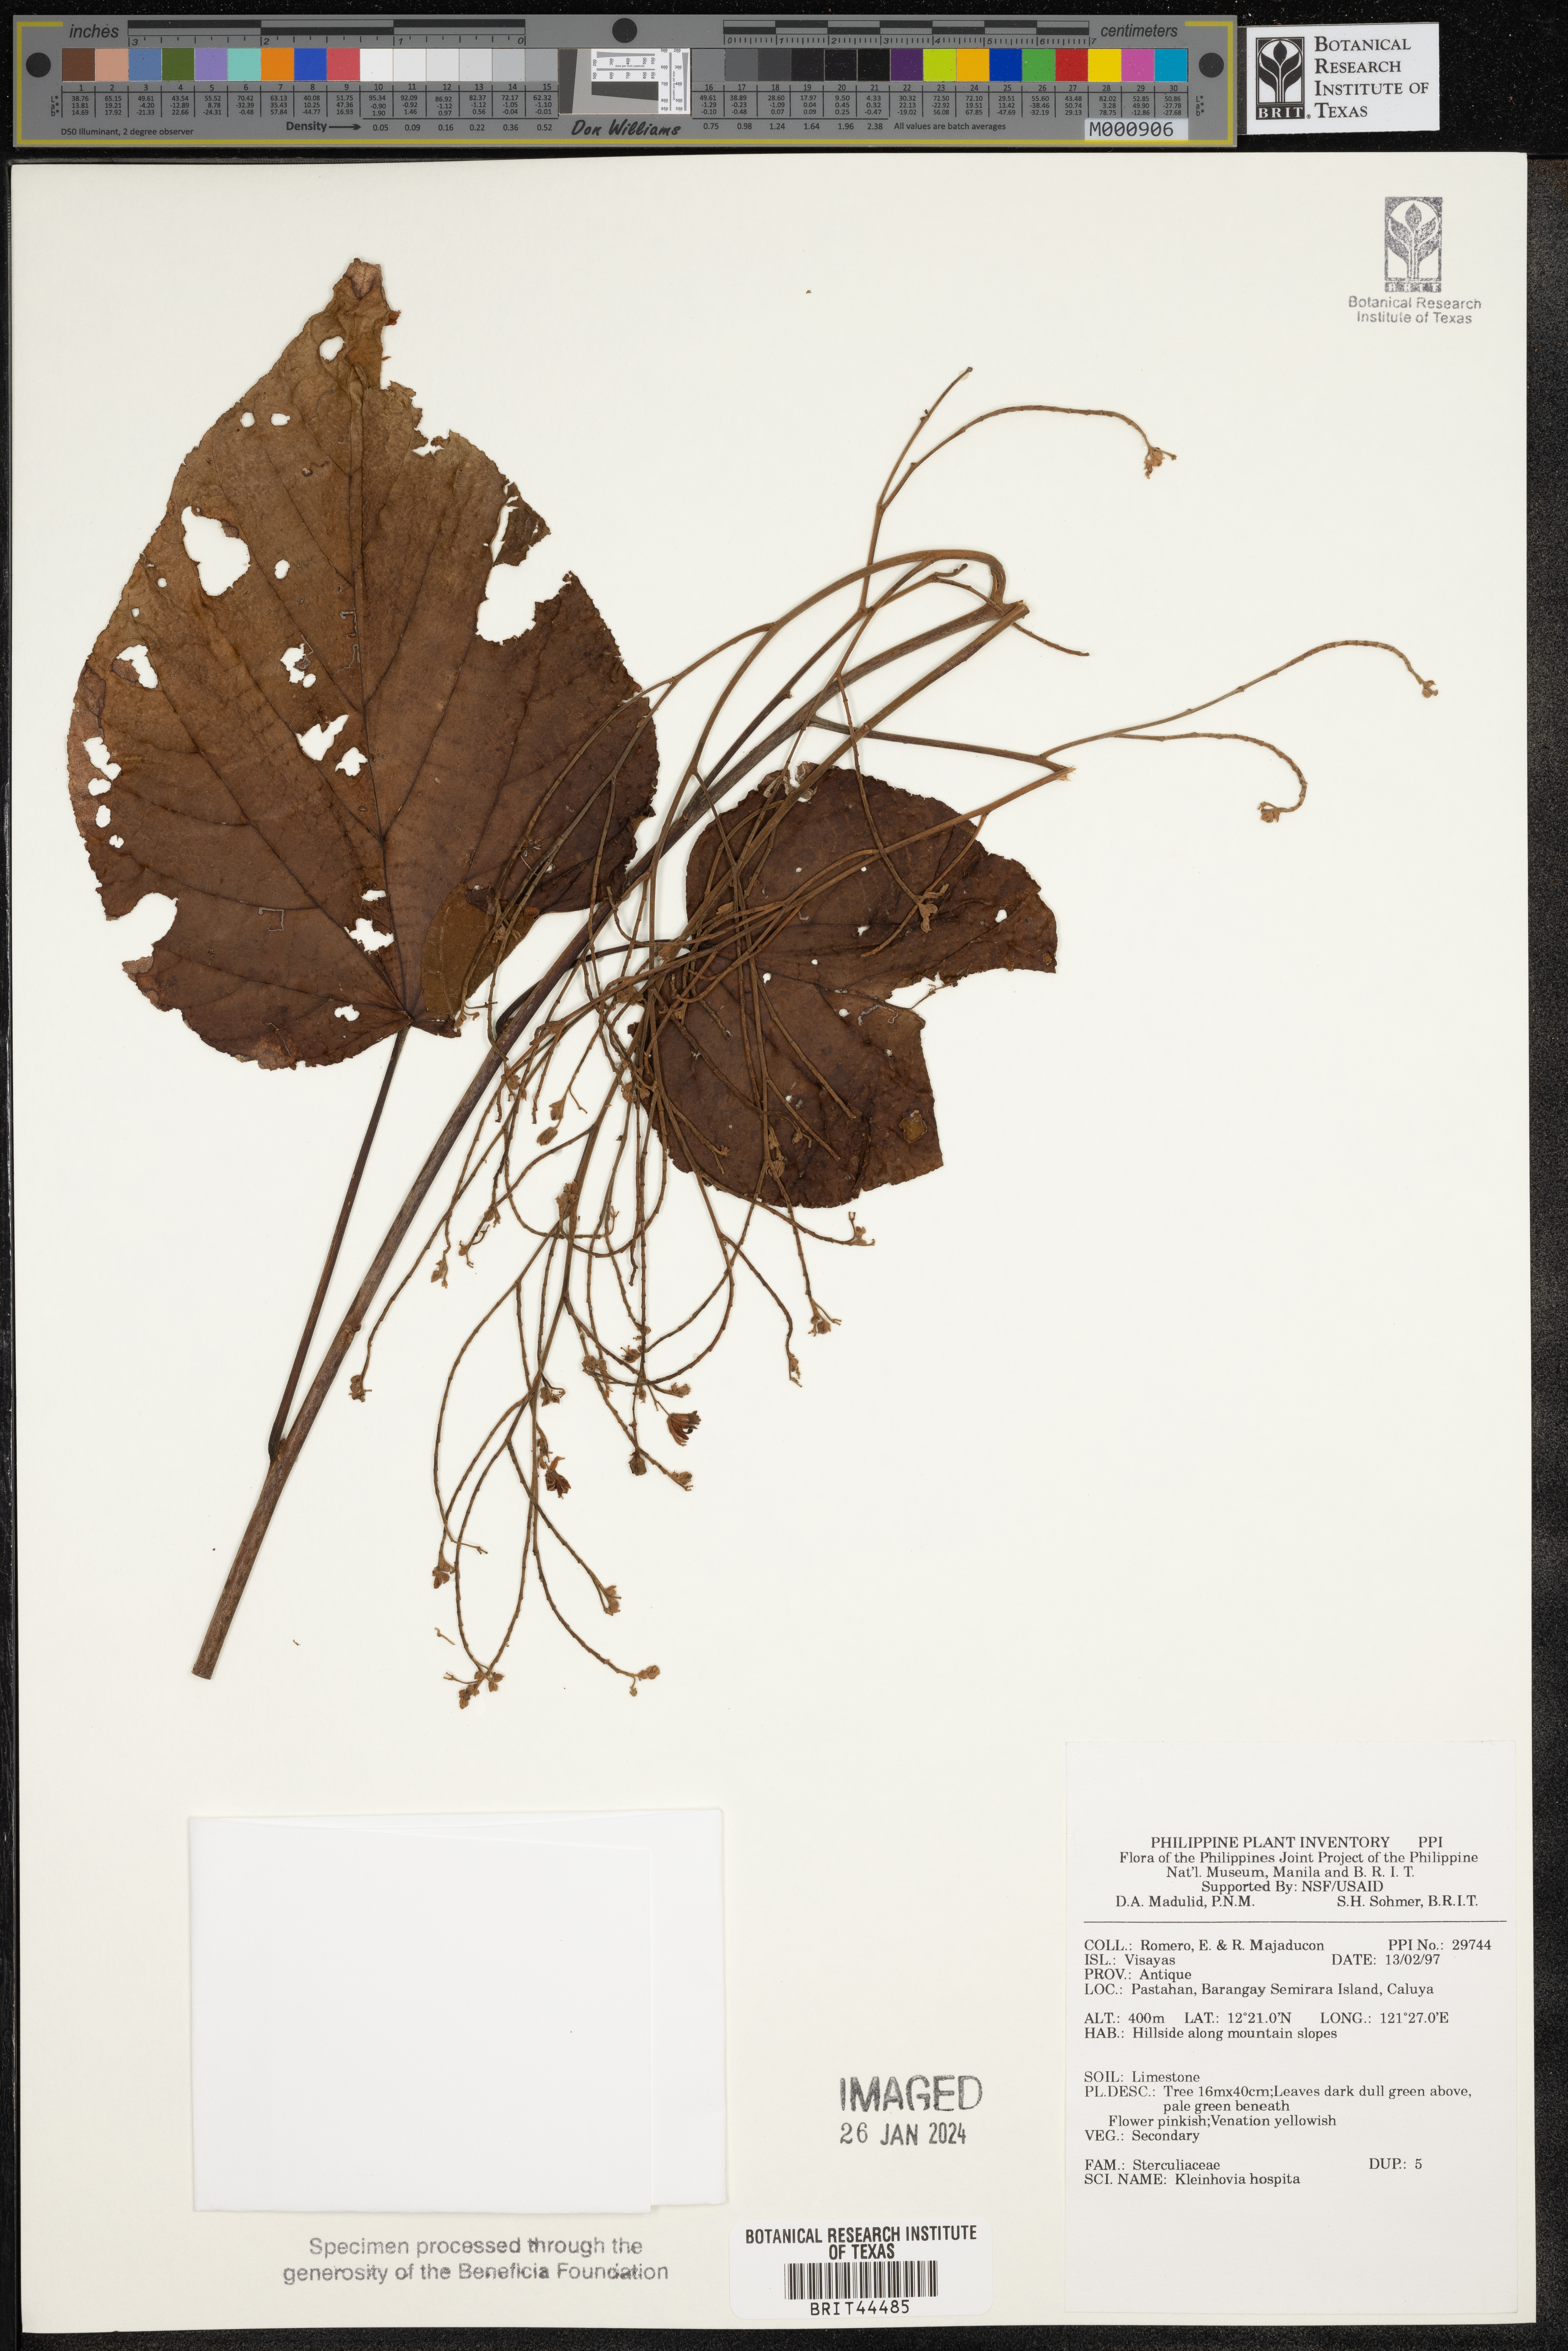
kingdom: Plantae
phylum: Tracheophyta
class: Magnoliopsida
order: Malvales
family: Malvaceae
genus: Kleinhovia
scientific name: Kleinhovia hospita
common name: Guest-tree
